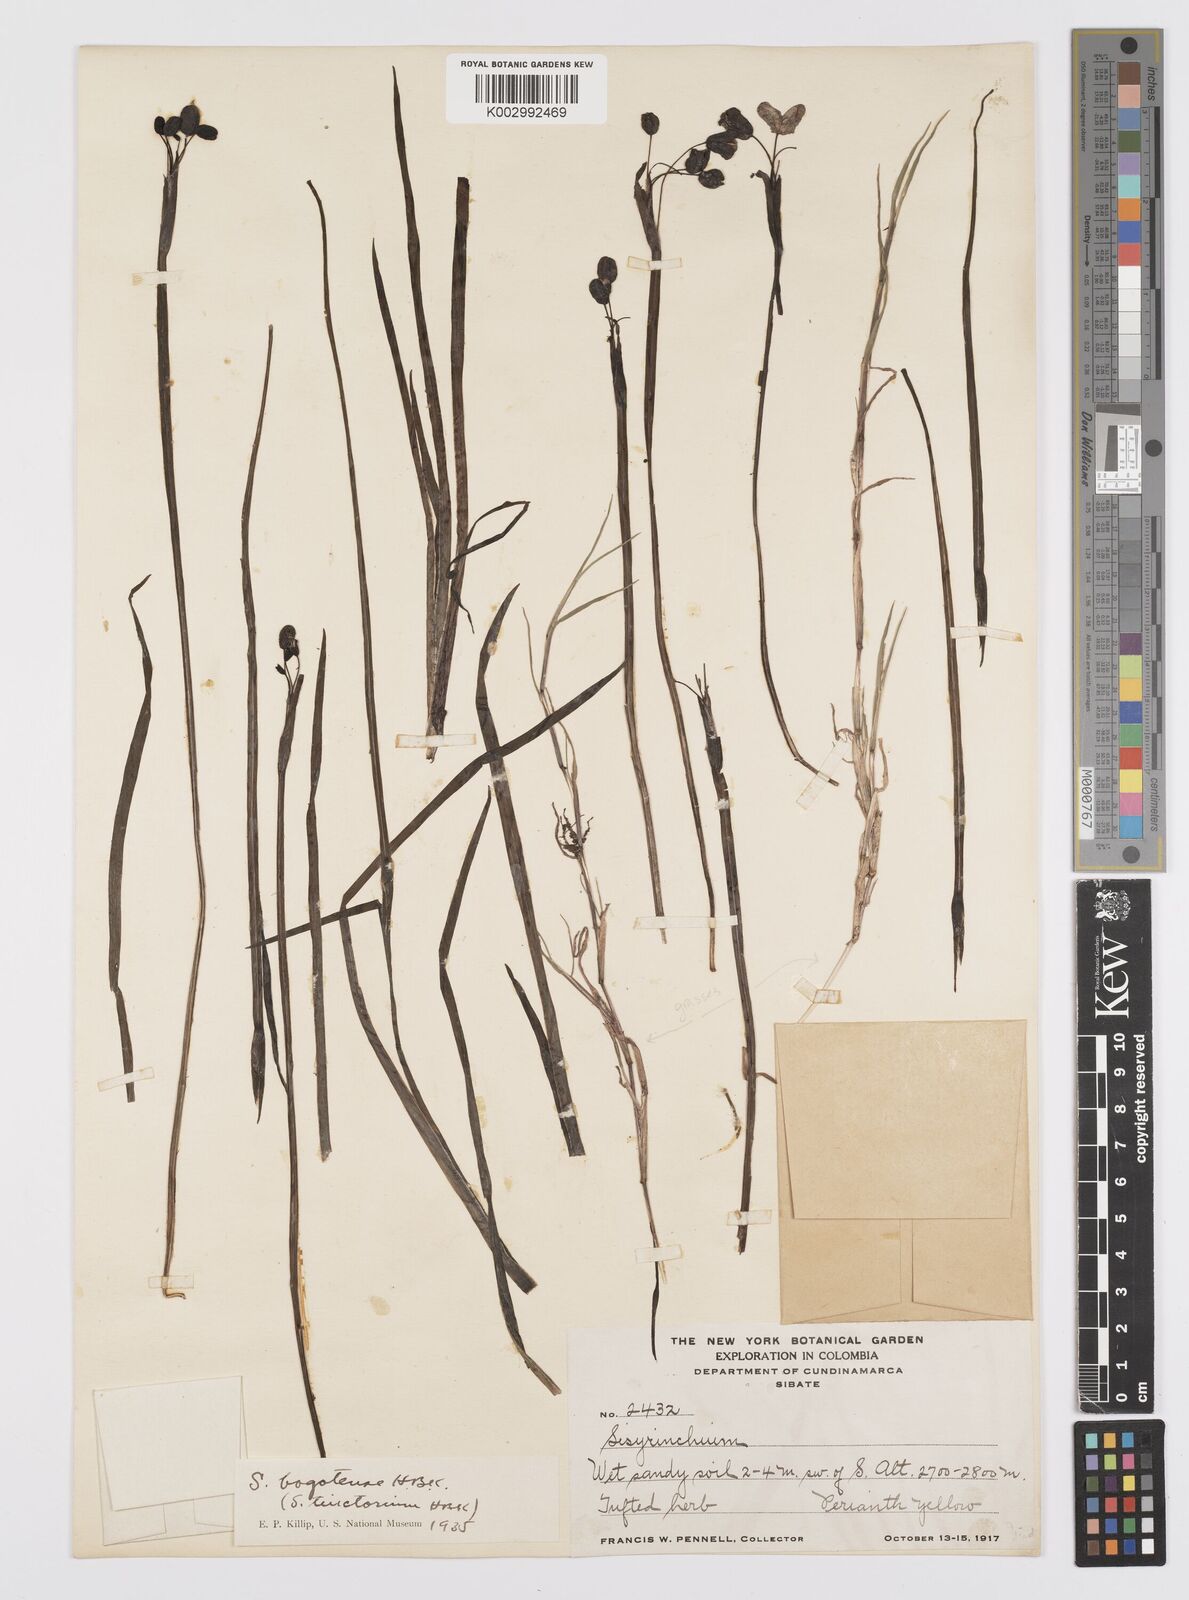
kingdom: Plantae
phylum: Tracheophyta
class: Liliopsida
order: Asparagales
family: Iridaceae
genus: Sisyrinchium
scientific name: Sisyrinchium tinctorium
